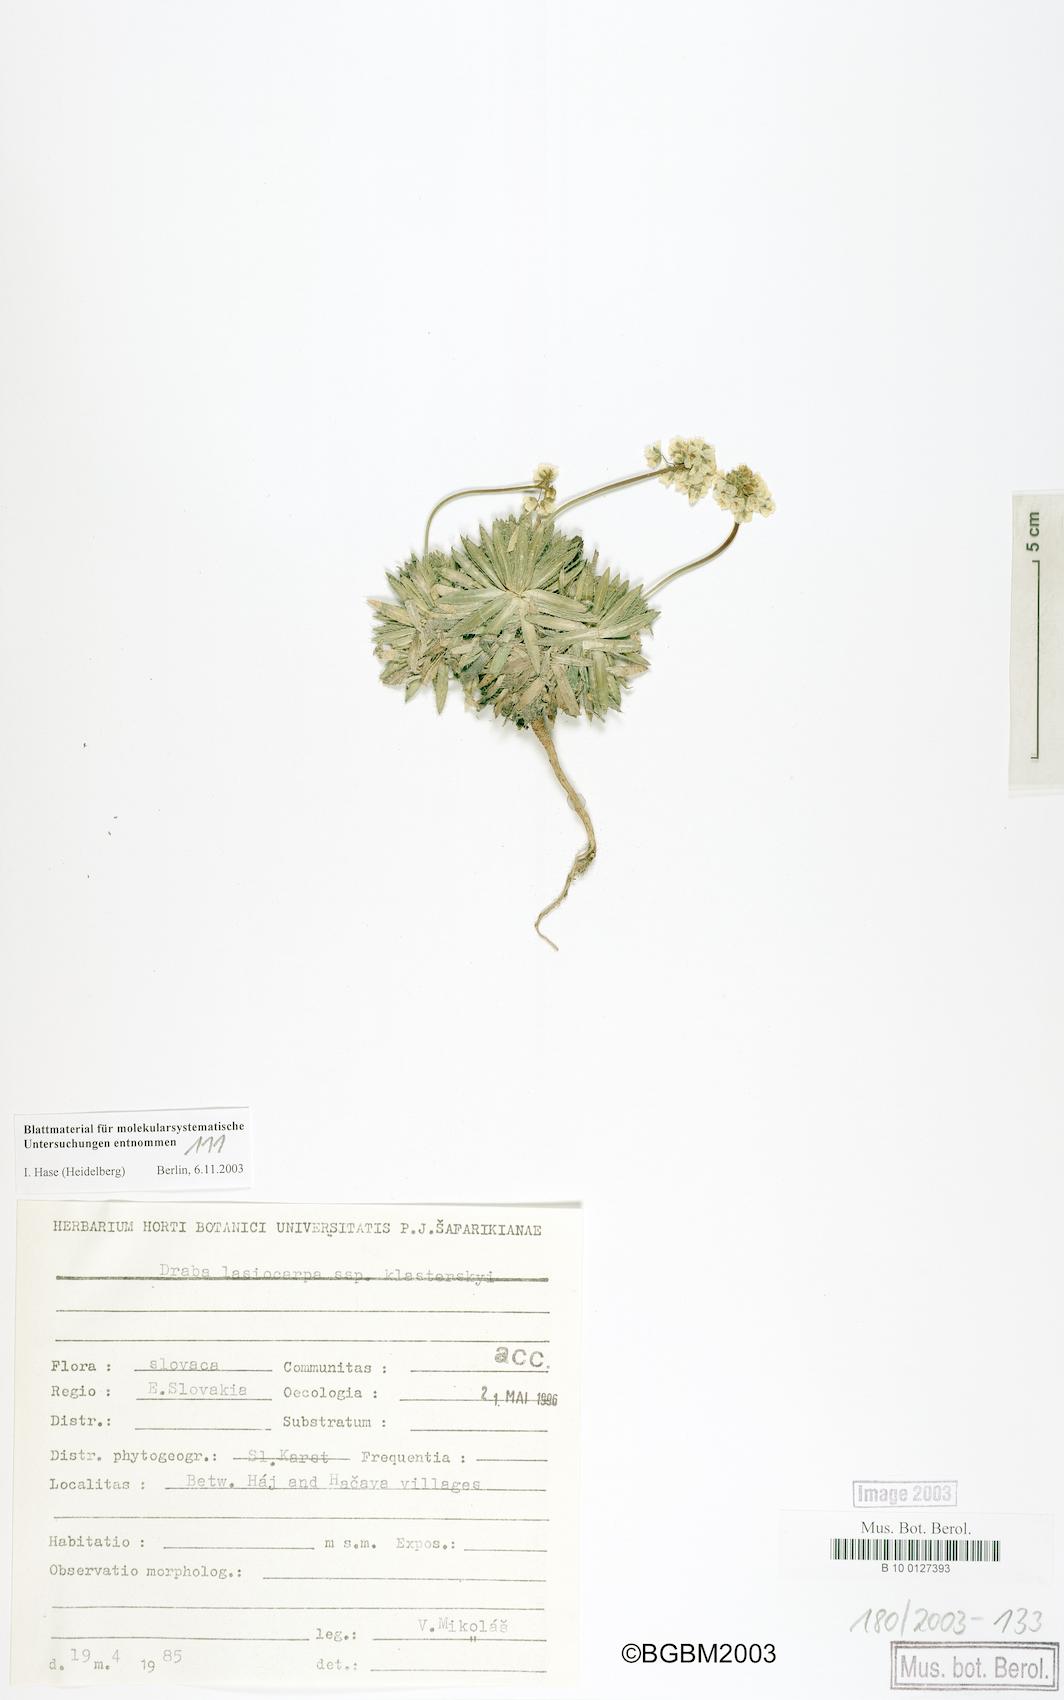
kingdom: Plantae
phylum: Tracheophyta
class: Magnoliopsida
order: Brassicales
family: Brassicaceae
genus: Draba
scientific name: Draba lasiocarpa
